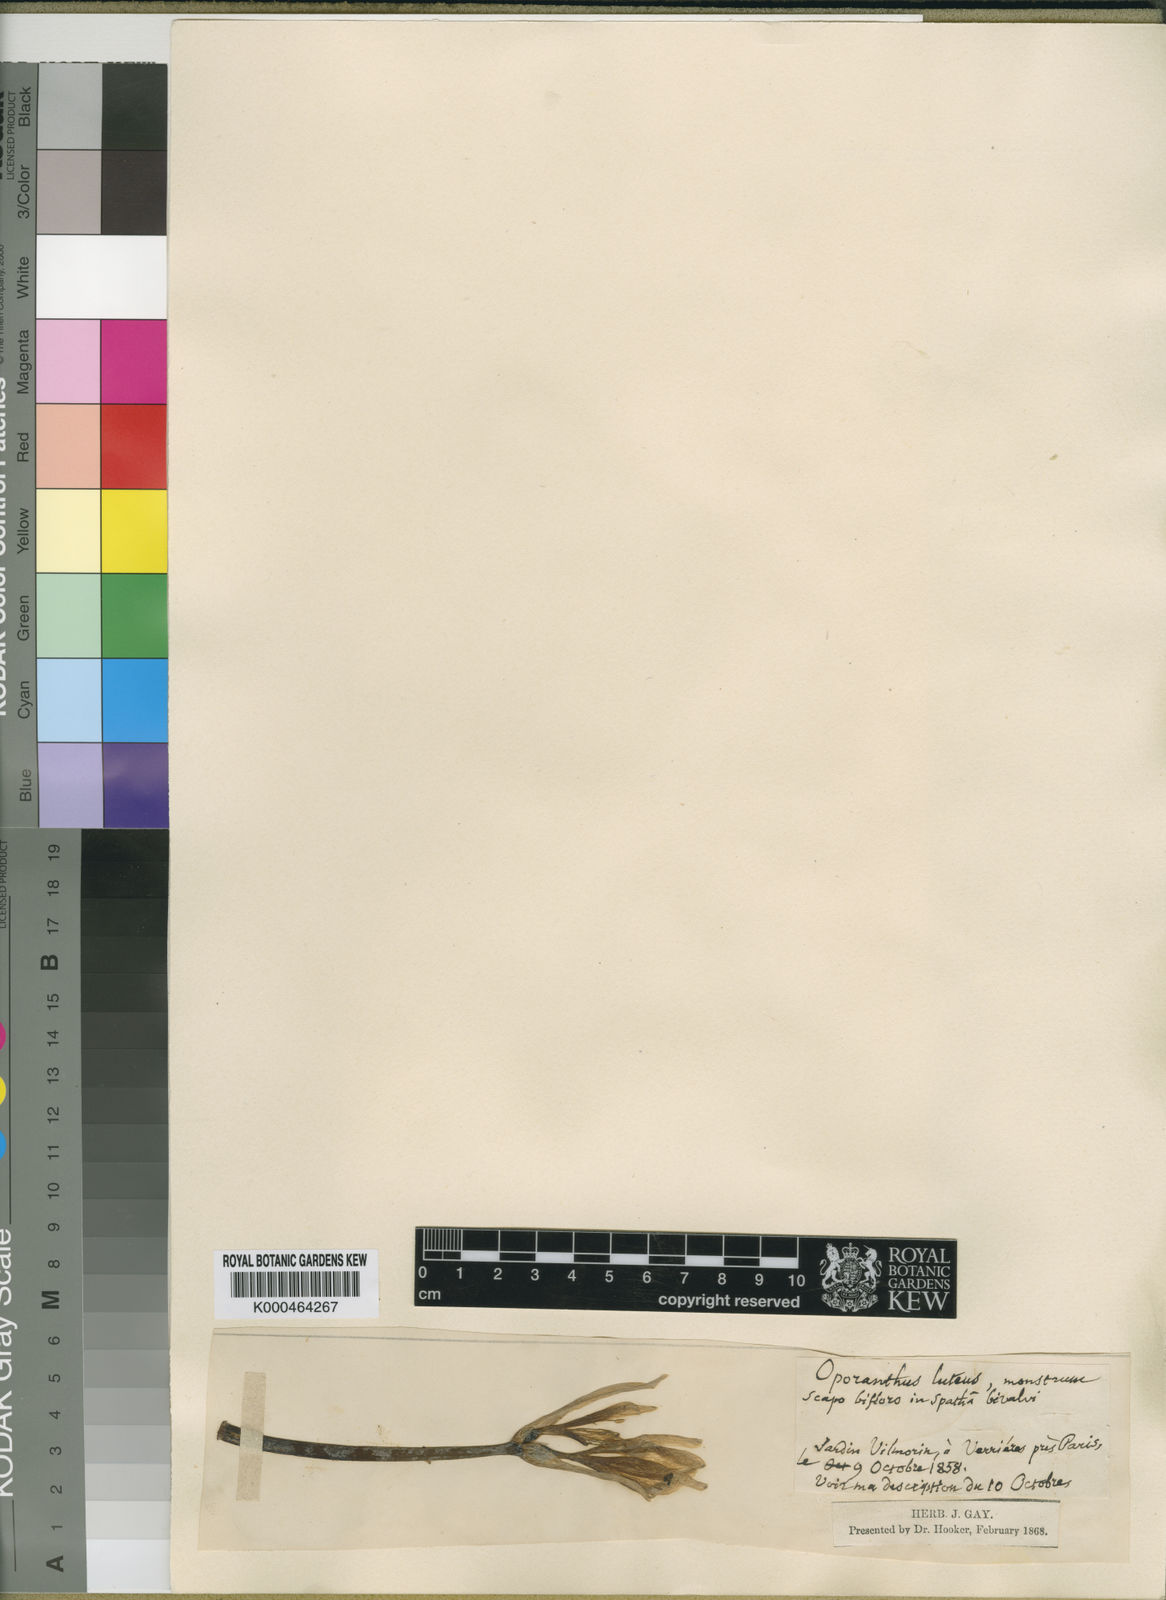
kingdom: Plantae
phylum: Tracheophyta
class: Liliopsida
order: Asparagales
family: Amaryllidaceae
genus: Sternbergia
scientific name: Sternbergia
